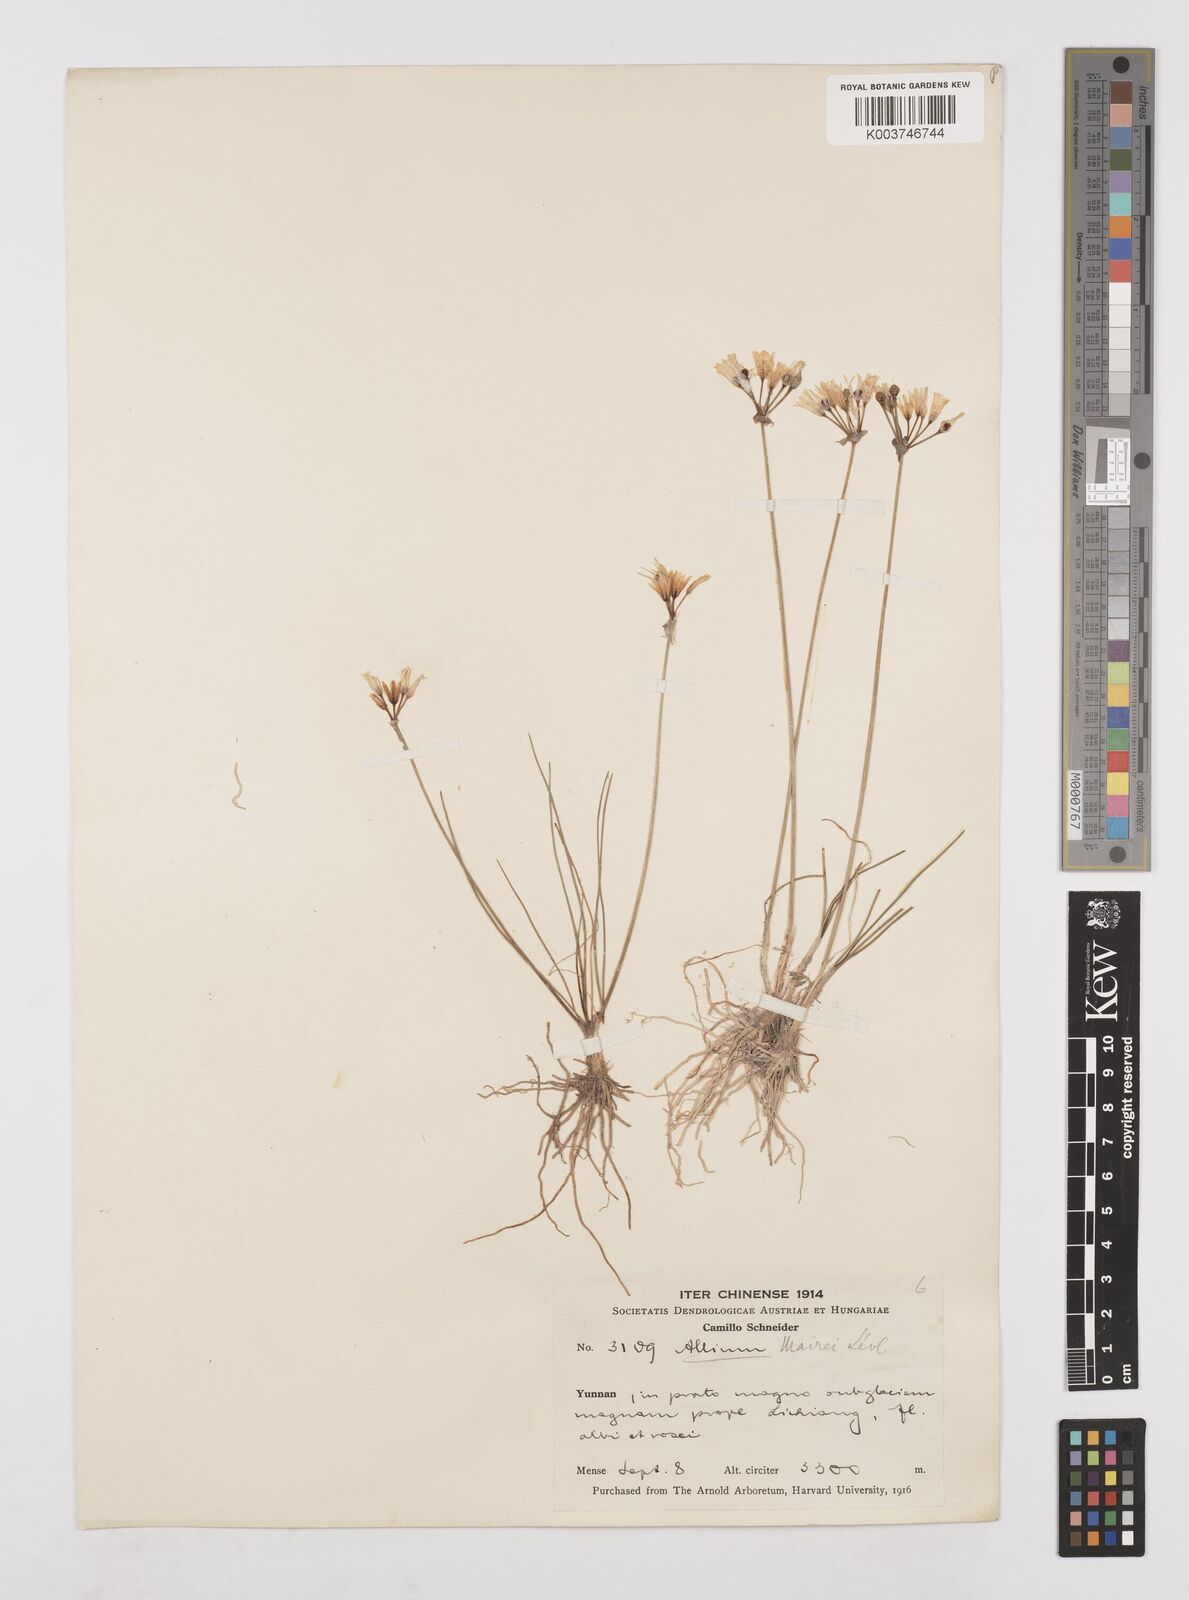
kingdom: Plantae
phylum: Tracheophyta
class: Liliopsida
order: Asparagales
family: Amaryllidaceae
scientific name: Amaryllidaceae
